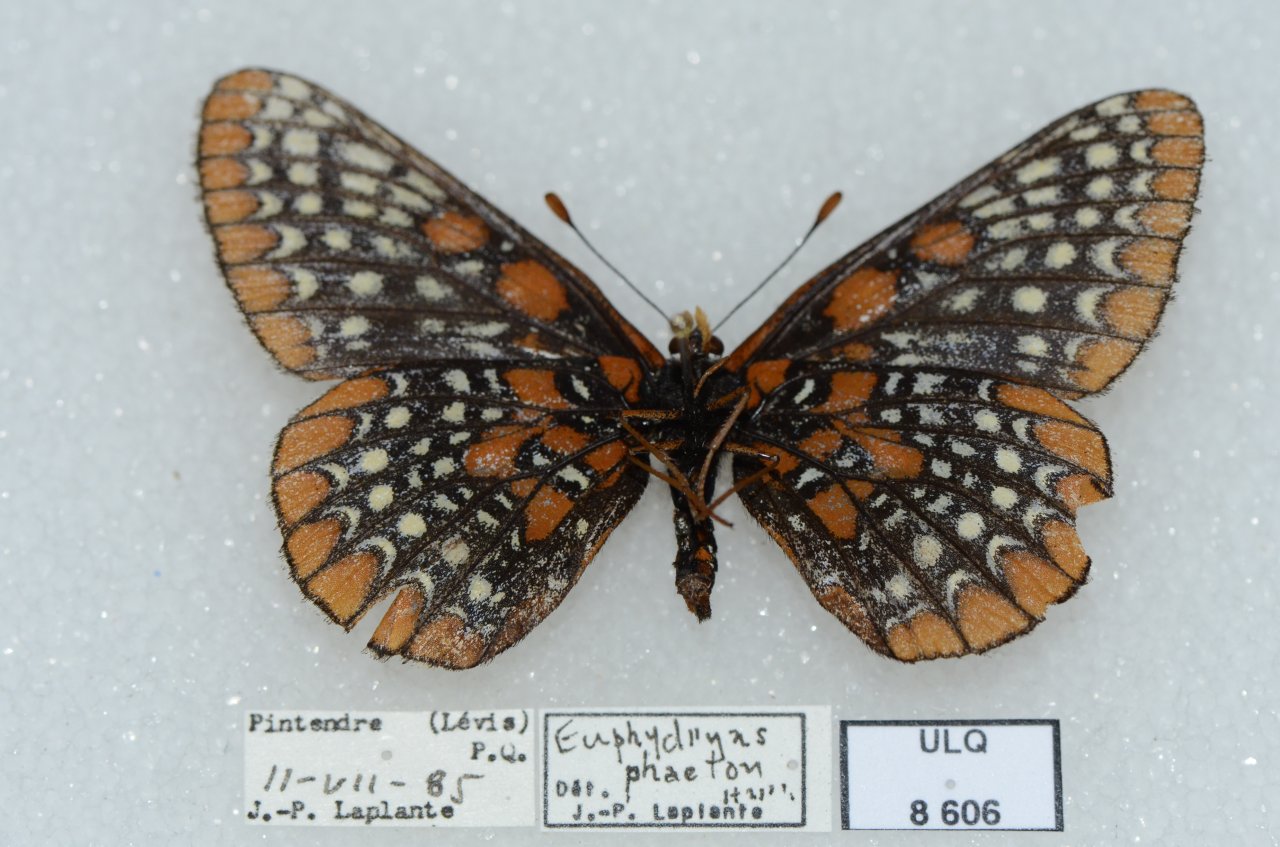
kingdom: Animalia
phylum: Arthropoda
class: Insecta
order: Lepidoptera
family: Nymphalidae
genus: Euphydryas
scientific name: Euphydryas phaeton
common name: Baltimore Checkerspot
